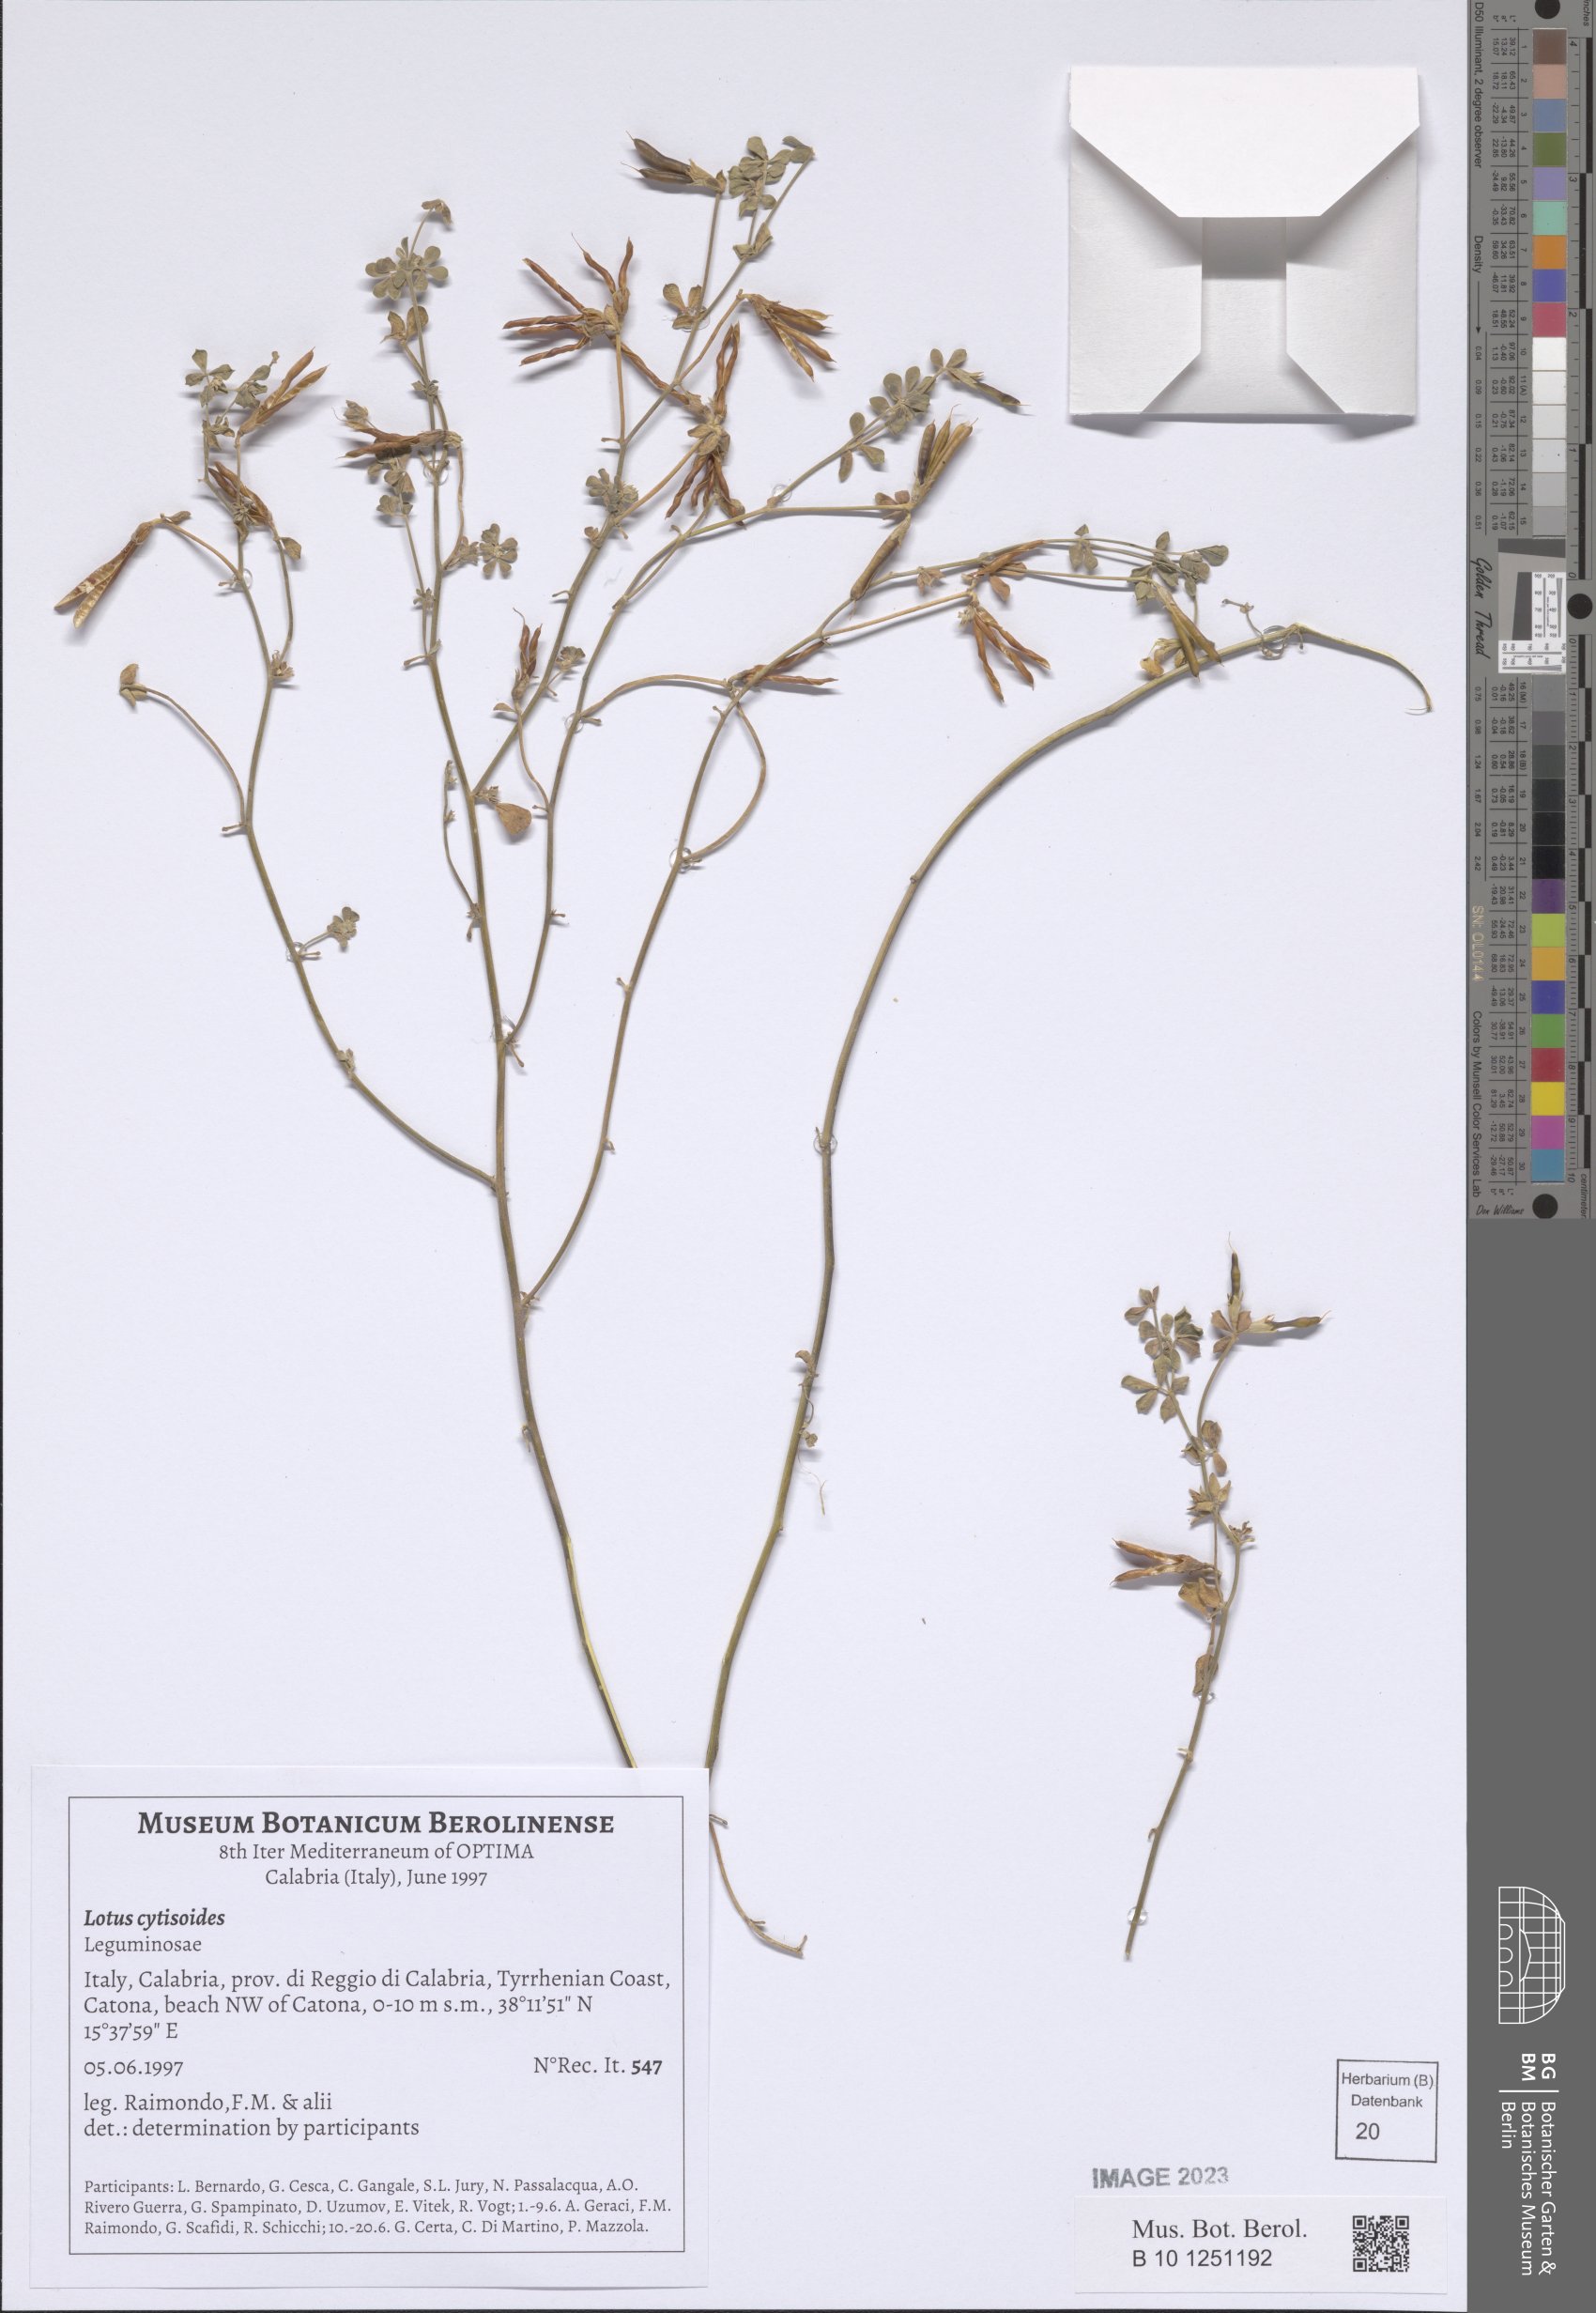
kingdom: Plantae
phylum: Tracheophyta
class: Magnoliopsida
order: Fabales
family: Fabaceae
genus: Lotus
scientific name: Lotus cytisoides
